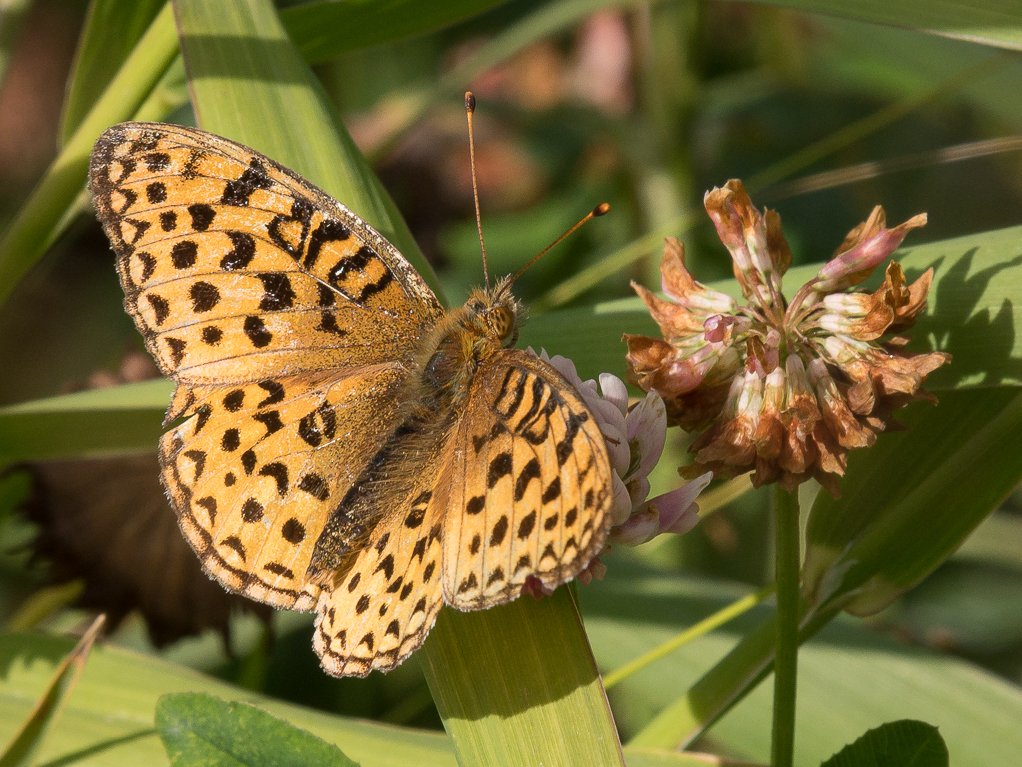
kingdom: Animalia
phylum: Arthropoda
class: Insecta
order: Lepidoptera
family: Nymphalidae
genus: Speyeria
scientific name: Speyeria mormonia
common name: Mormon Fritillary
